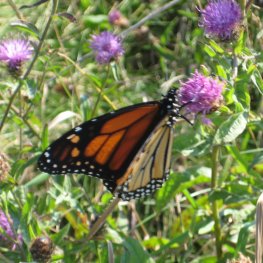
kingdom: Animalia
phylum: Arthropoda
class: Insecta
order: Lepidoptera
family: Nymphalidae
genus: Danaus
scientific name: Danaus plexippus
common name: Monarch
